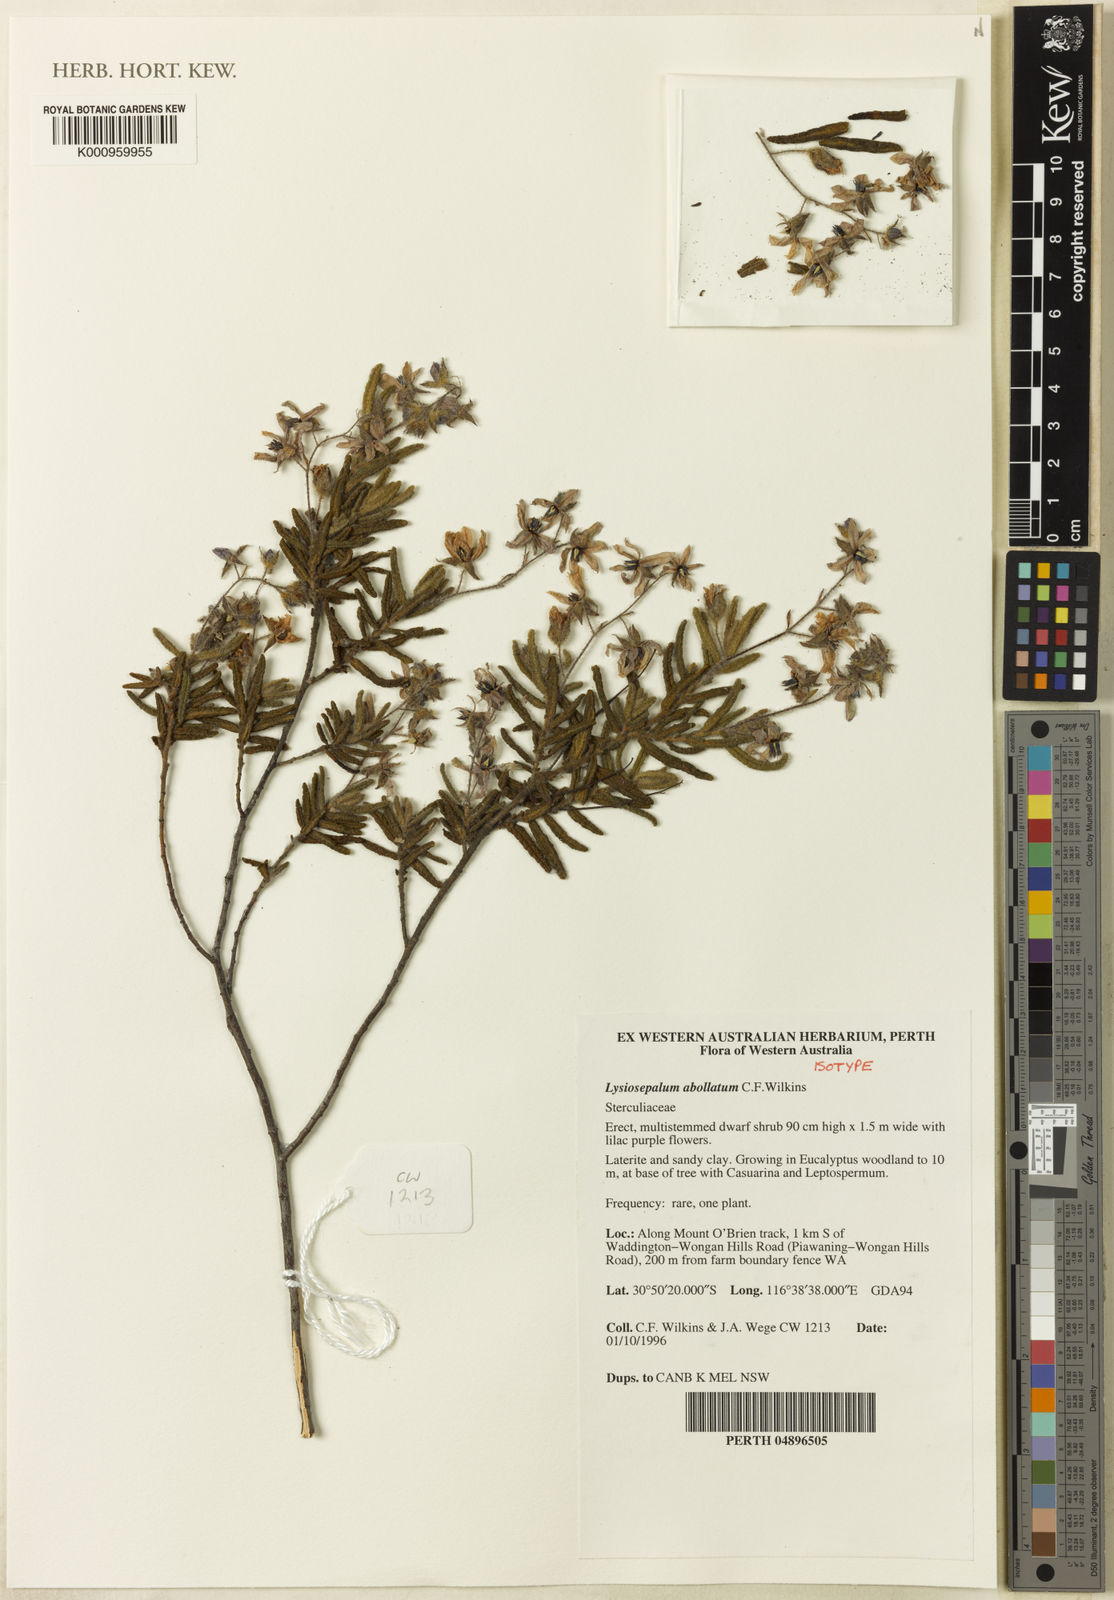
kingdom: Plantae
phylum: Tracheophyta
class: Magnoliopsida
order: Malvales
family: Malvaceae
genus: Lysiosepalum
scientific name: Lysiosepalum
